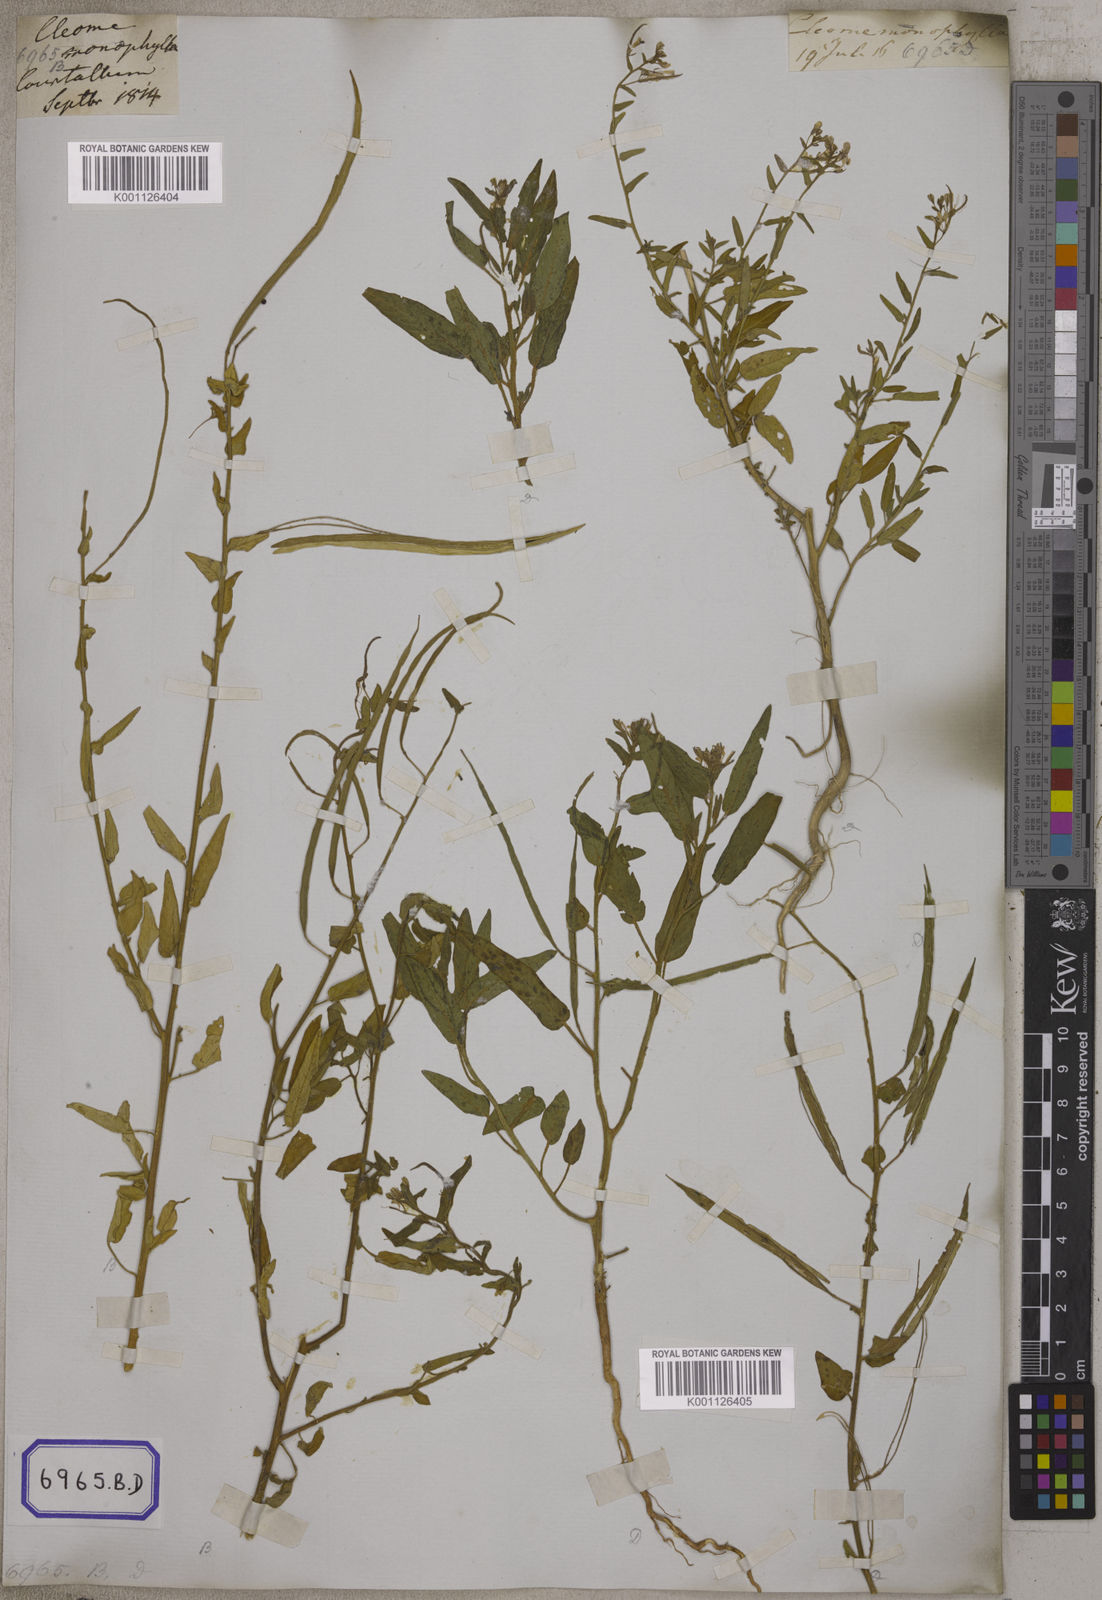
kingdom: Plantae
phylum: Tracheophyta
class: Magnoliopsida
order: Brassicales
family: Cleomaceae
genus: Cleome
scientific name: Cleome
